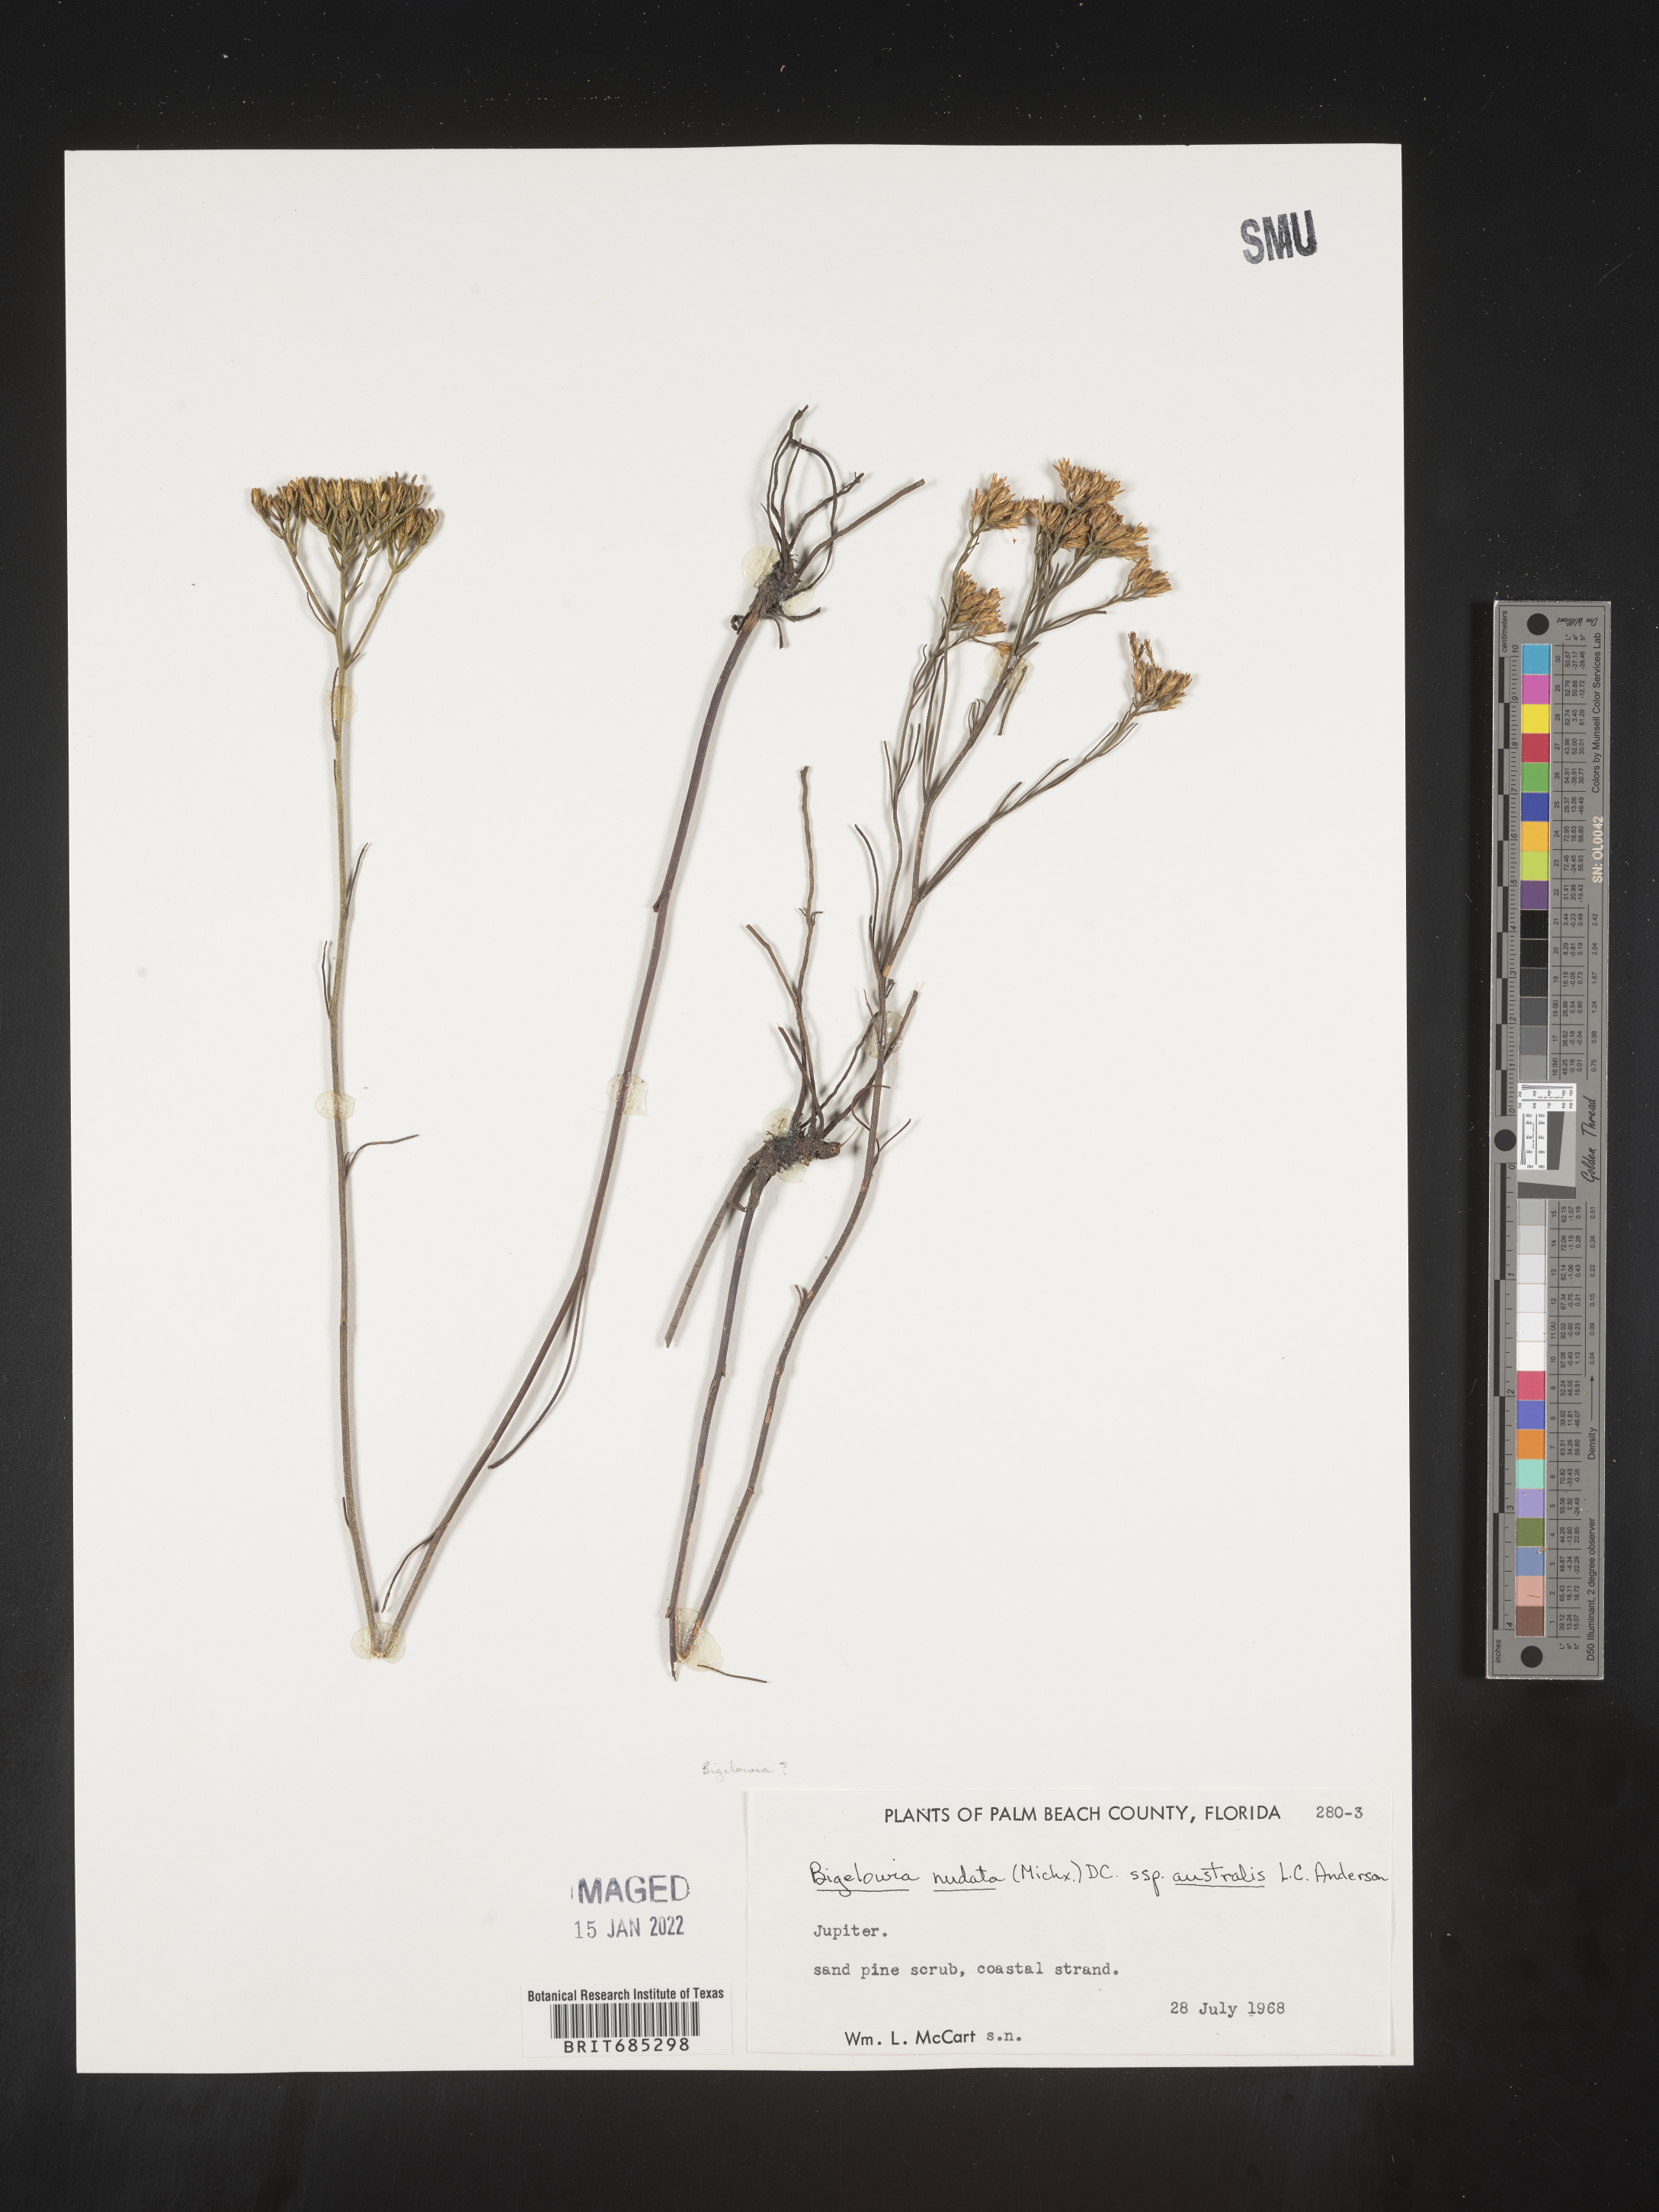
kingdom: Plantae
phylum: Tracheophyta
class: Magnoliopsida
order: Asterales
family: Asteraceae
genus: Bigelowia
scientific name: Bigelowia nudata
